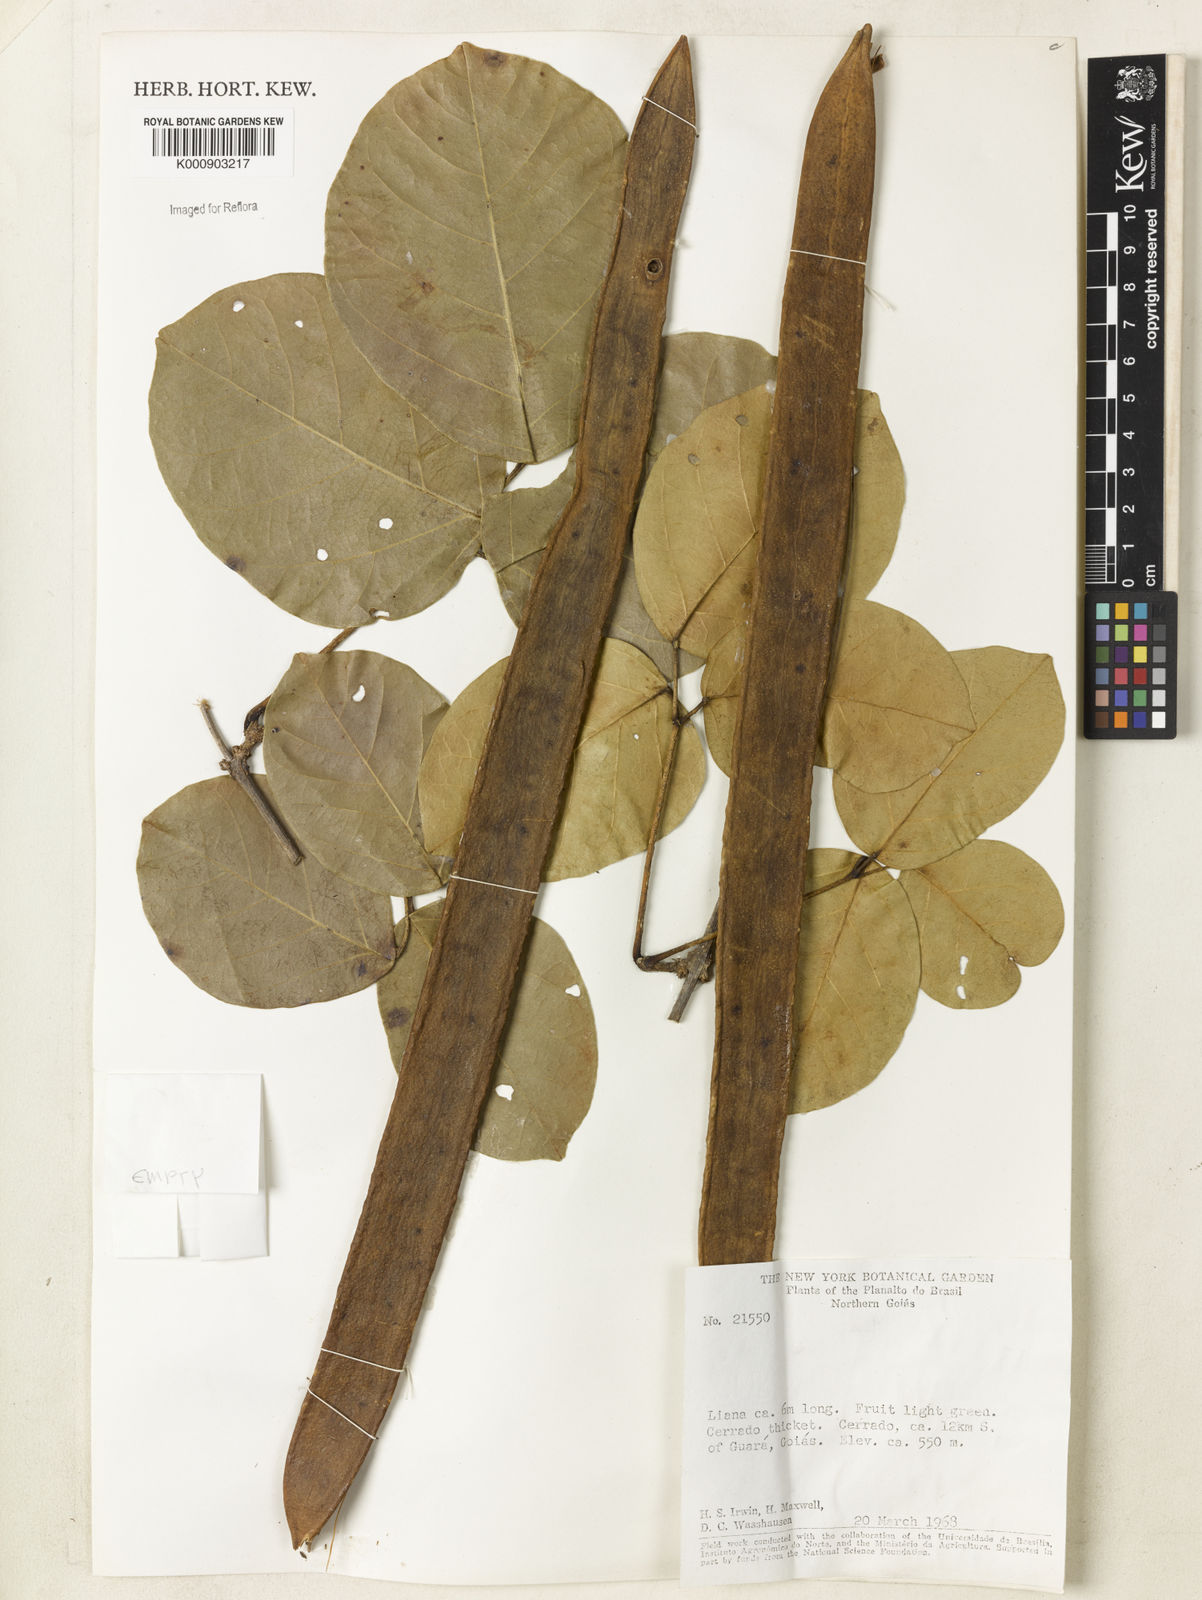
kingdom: Plantae
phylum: Tracheophyta
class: Magnoliopsida
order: Lamiales
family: Bignoniaceae
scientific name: Bignoniaceae
